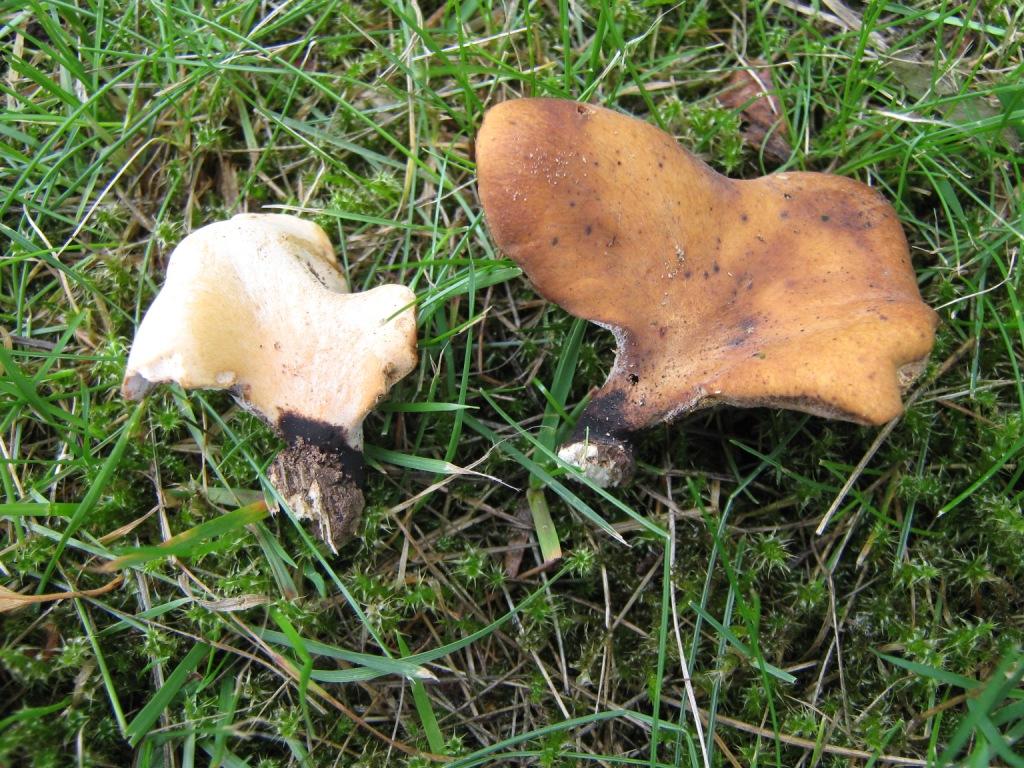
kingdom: Fungi
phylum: Basidiomycota
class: Agaricomycetes
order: Polyporales
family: Polyporaceae
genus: Cerioporus
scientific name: Cerioporus varius
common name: foranderlig stilkporesvamp
